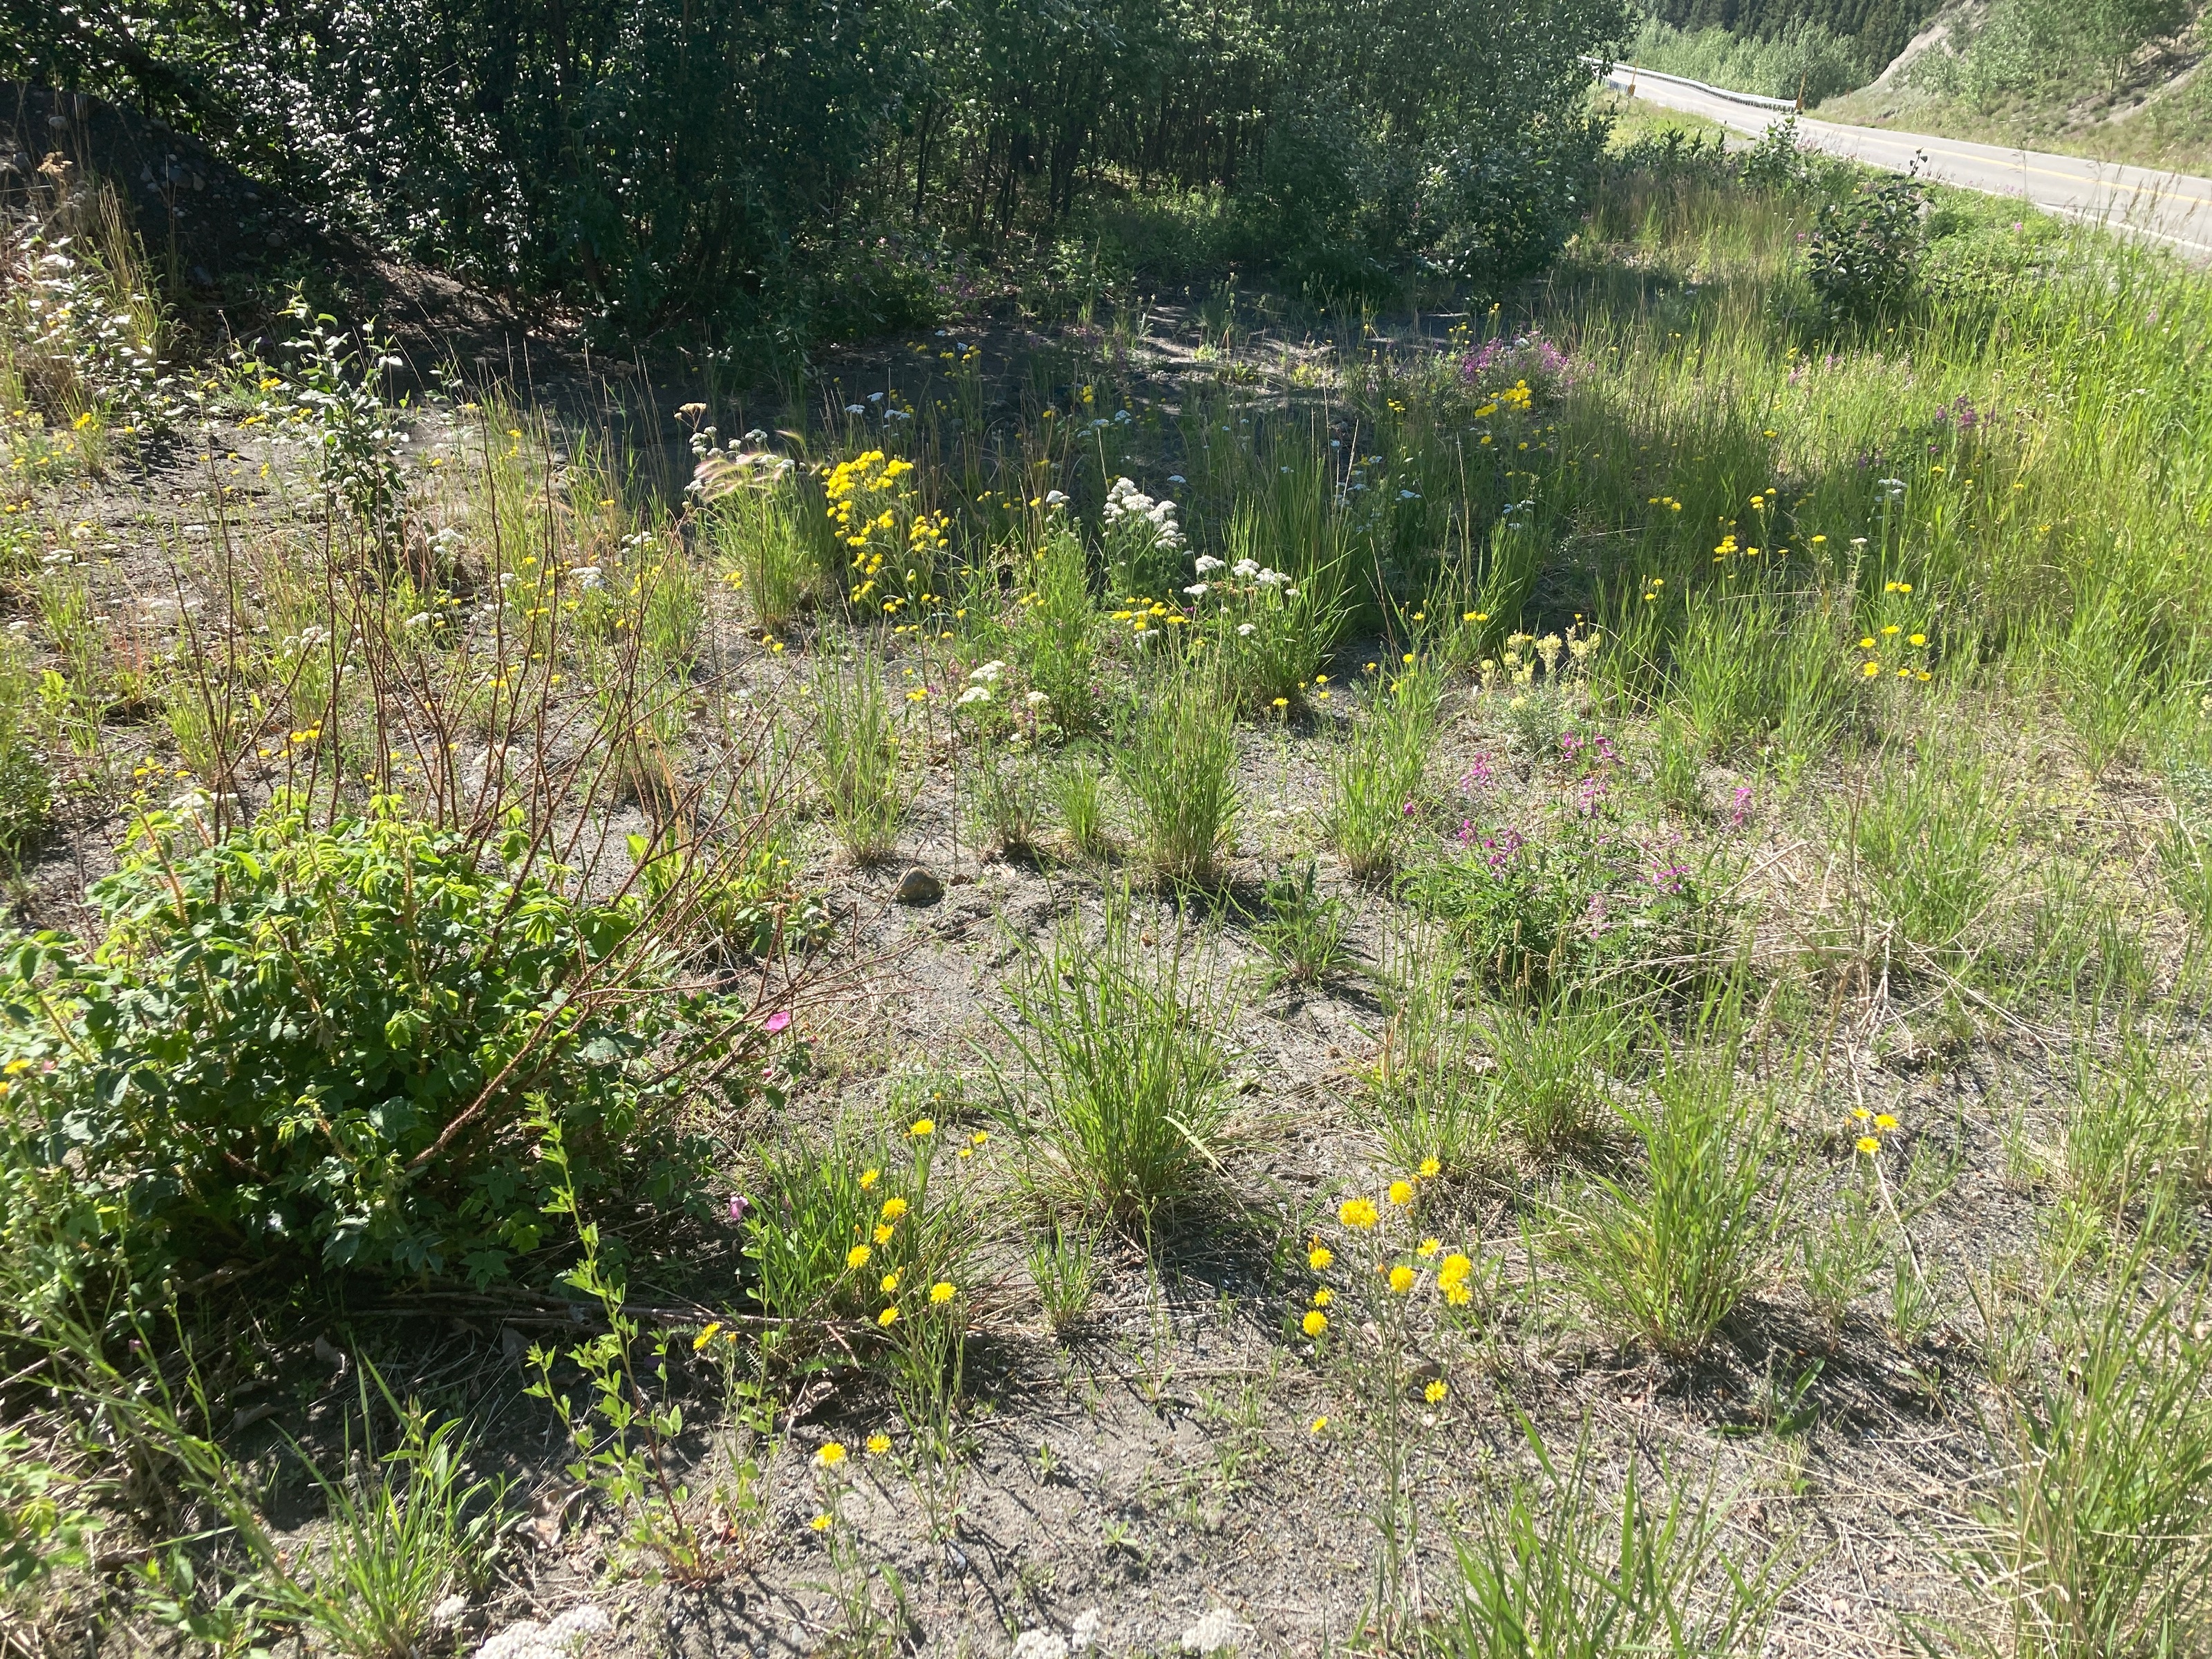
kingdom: Plantae
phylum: Tracheophyta
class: Magnoliopsida
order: Fabales
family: Fabaceae
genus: Melilotus
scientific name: Melilotus albus
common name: White sweetclover
